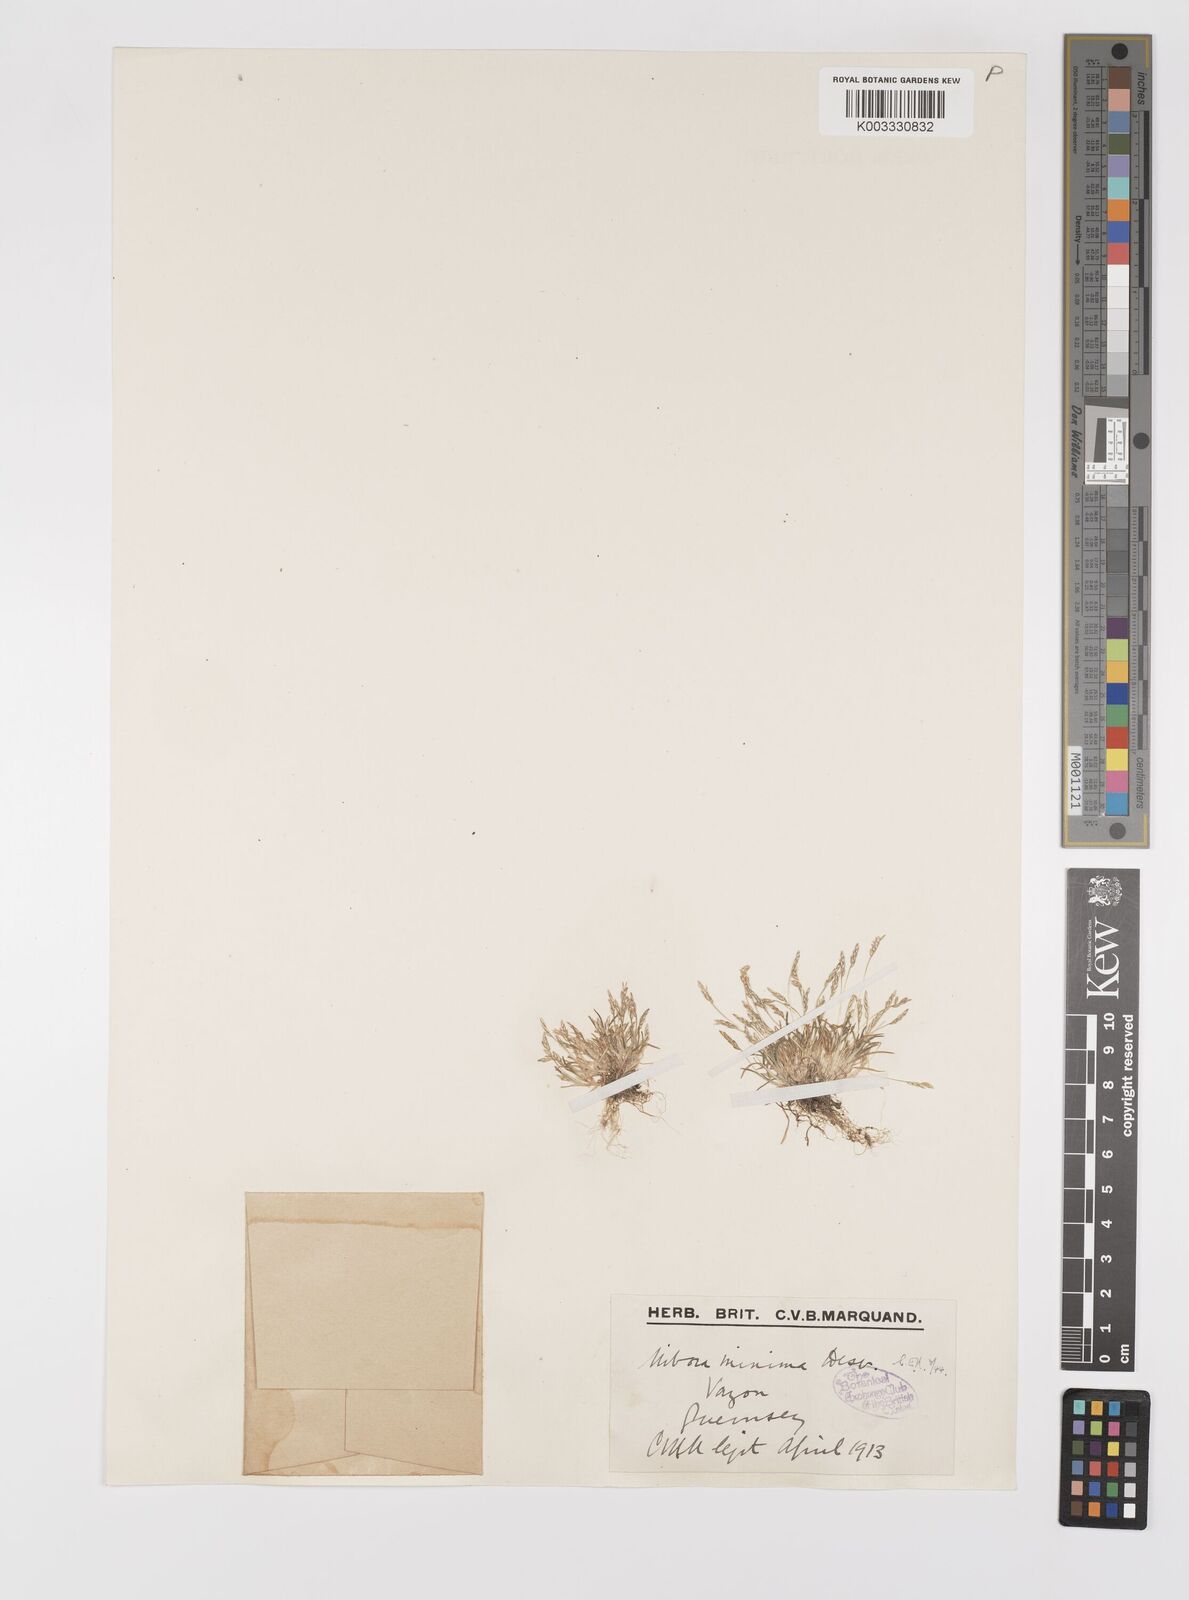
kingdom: Plantae
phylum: Tracheophyta
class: Liliopsida
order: Poales
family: Poaceae
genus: Mibora
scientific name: Mibora minima
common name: Early sand-grass
